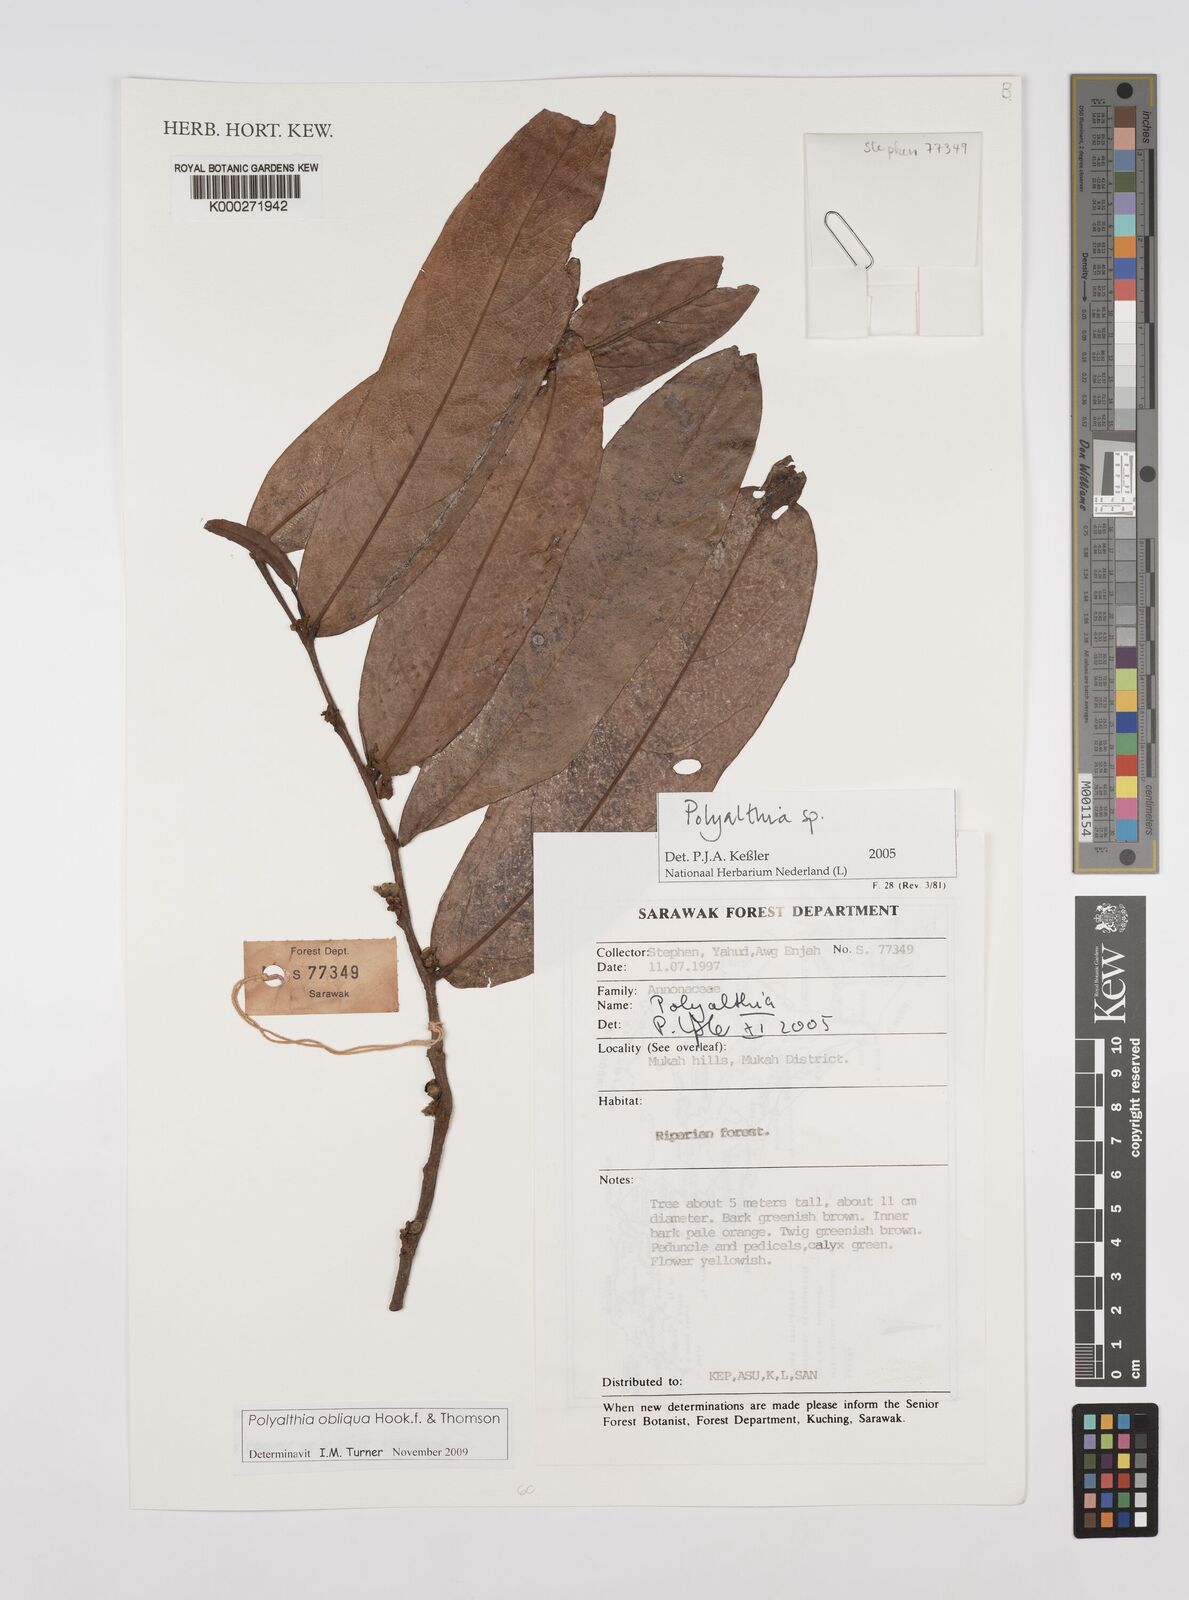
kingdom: Plantae
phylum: Tracheophyta
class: Magnoliopsida
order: Magnoliales
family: Annonaceae
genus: Polyalthia
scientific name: Polyalthia
